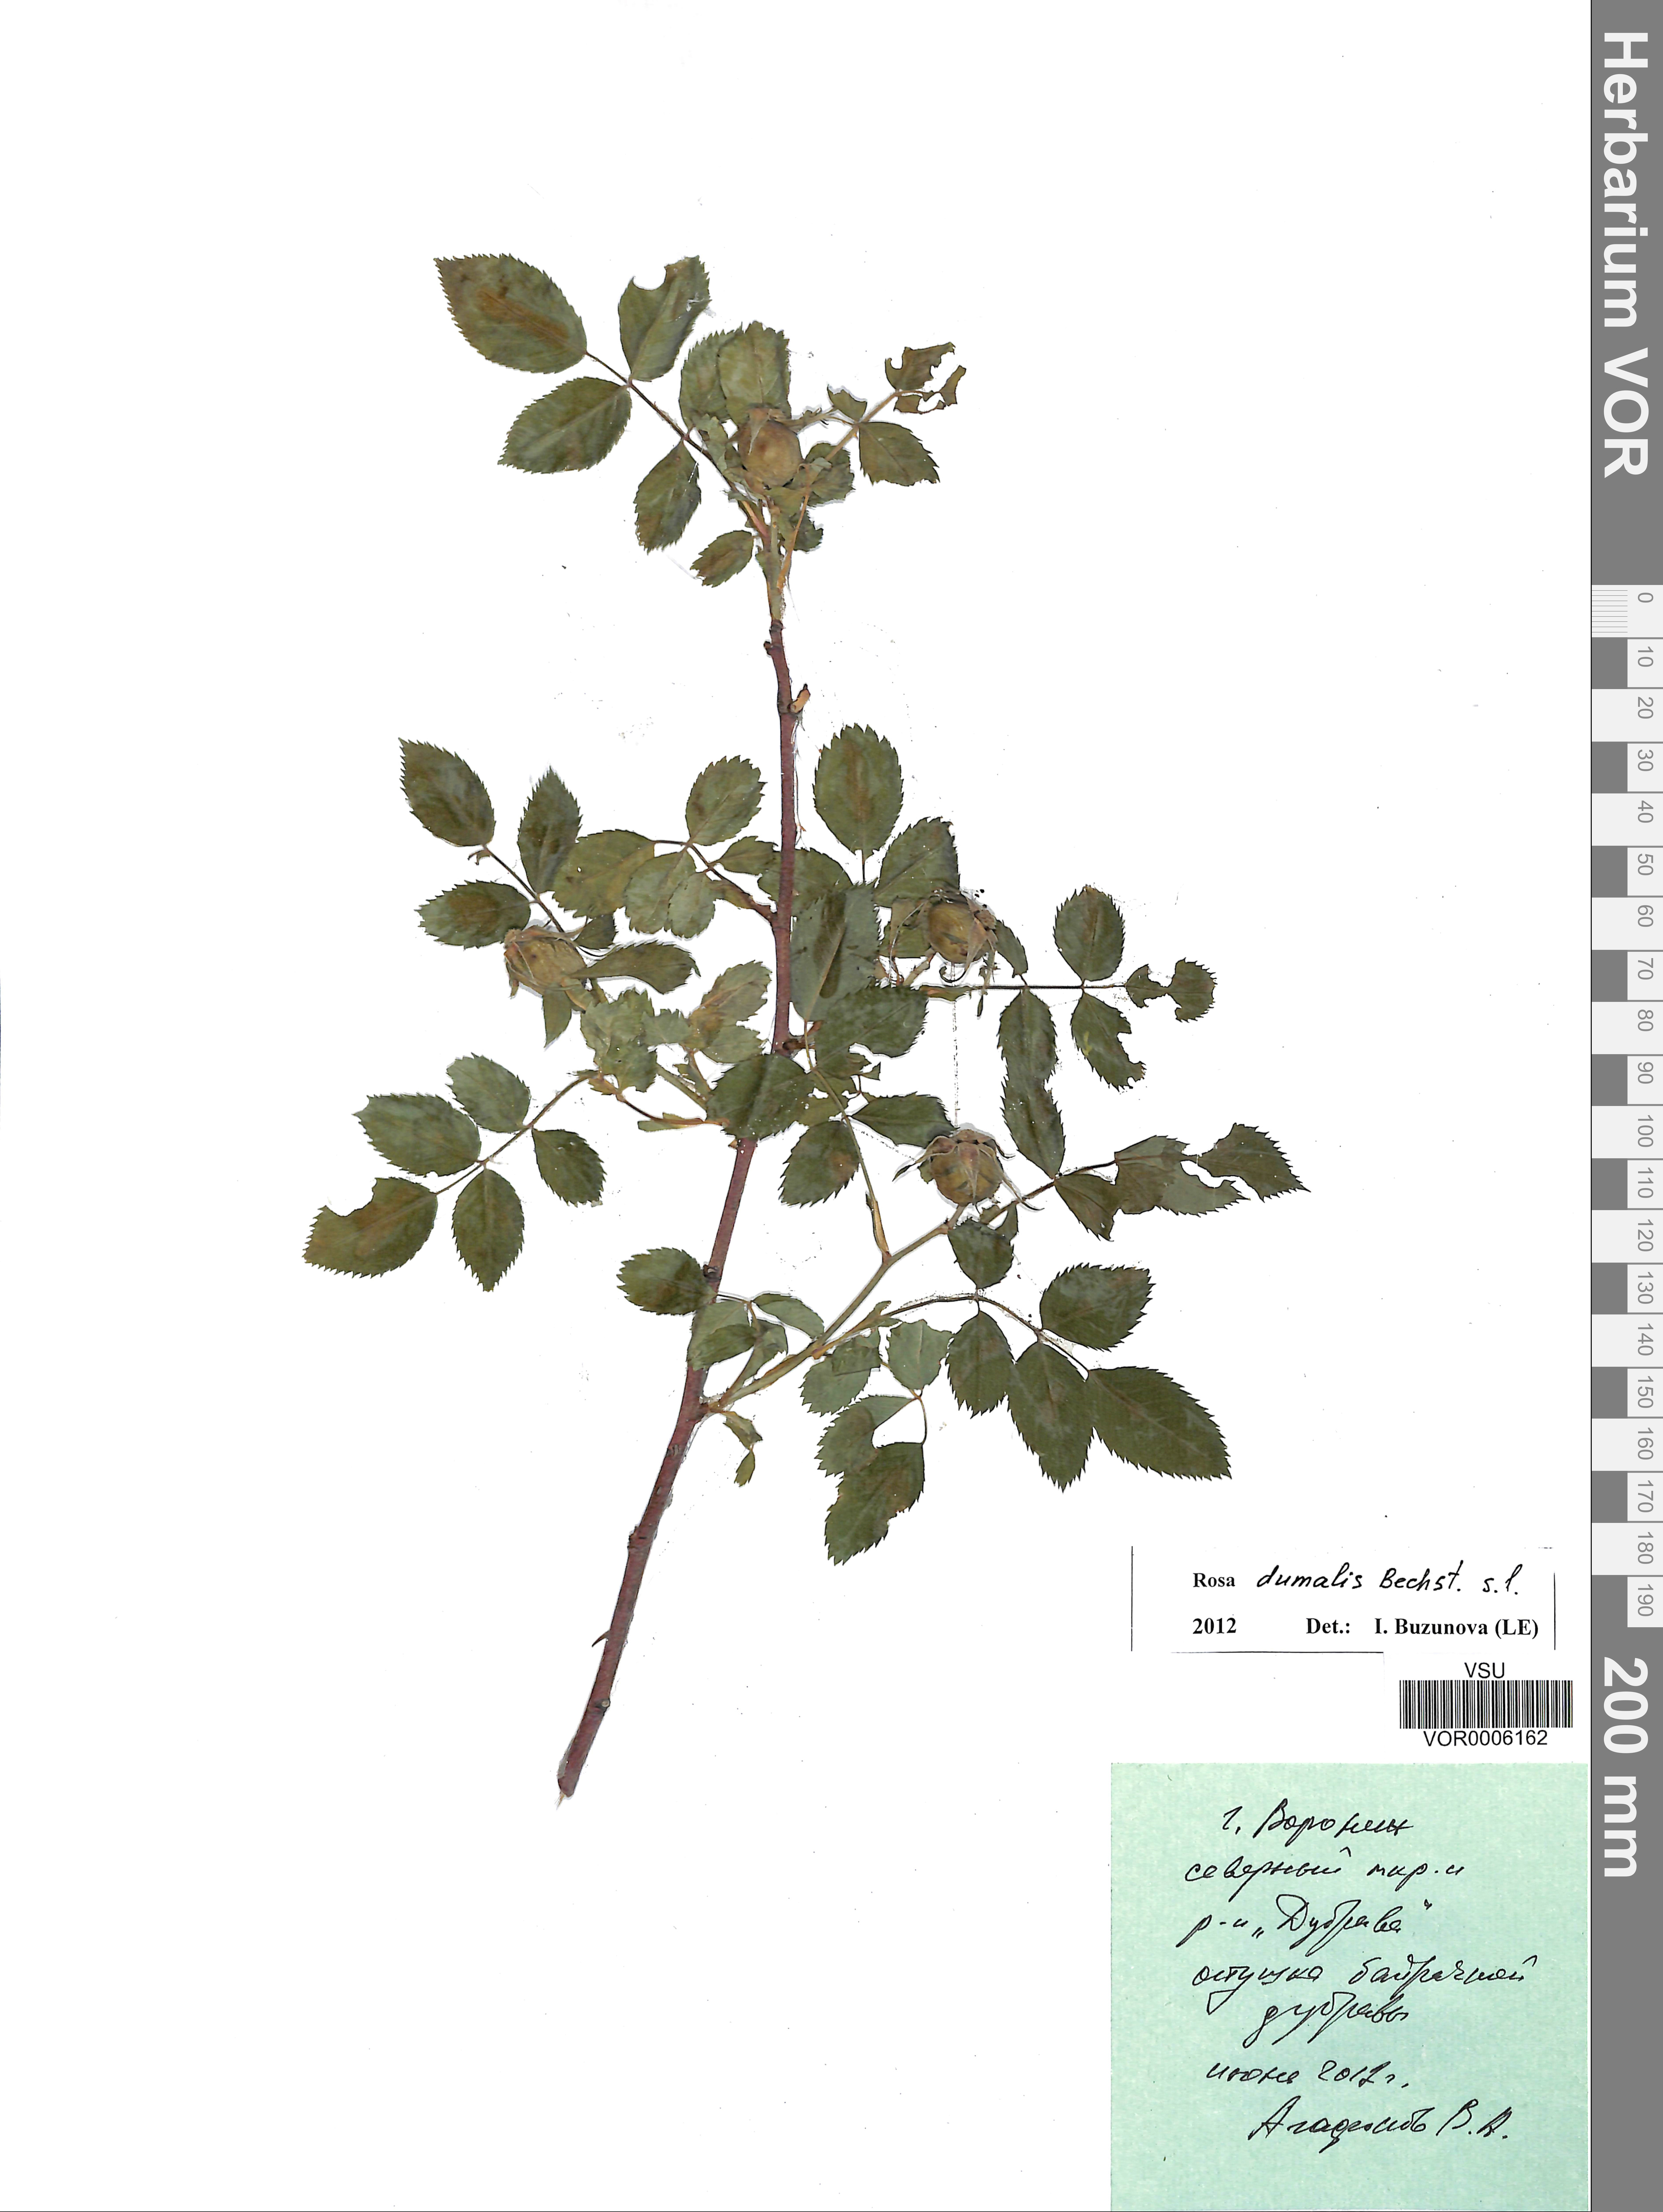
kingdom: Plantae
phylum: Tracheophyta
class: Magnoliopsida
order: Rosales
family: Rosaceae
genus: Rosa
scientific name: Rosa dumalis
